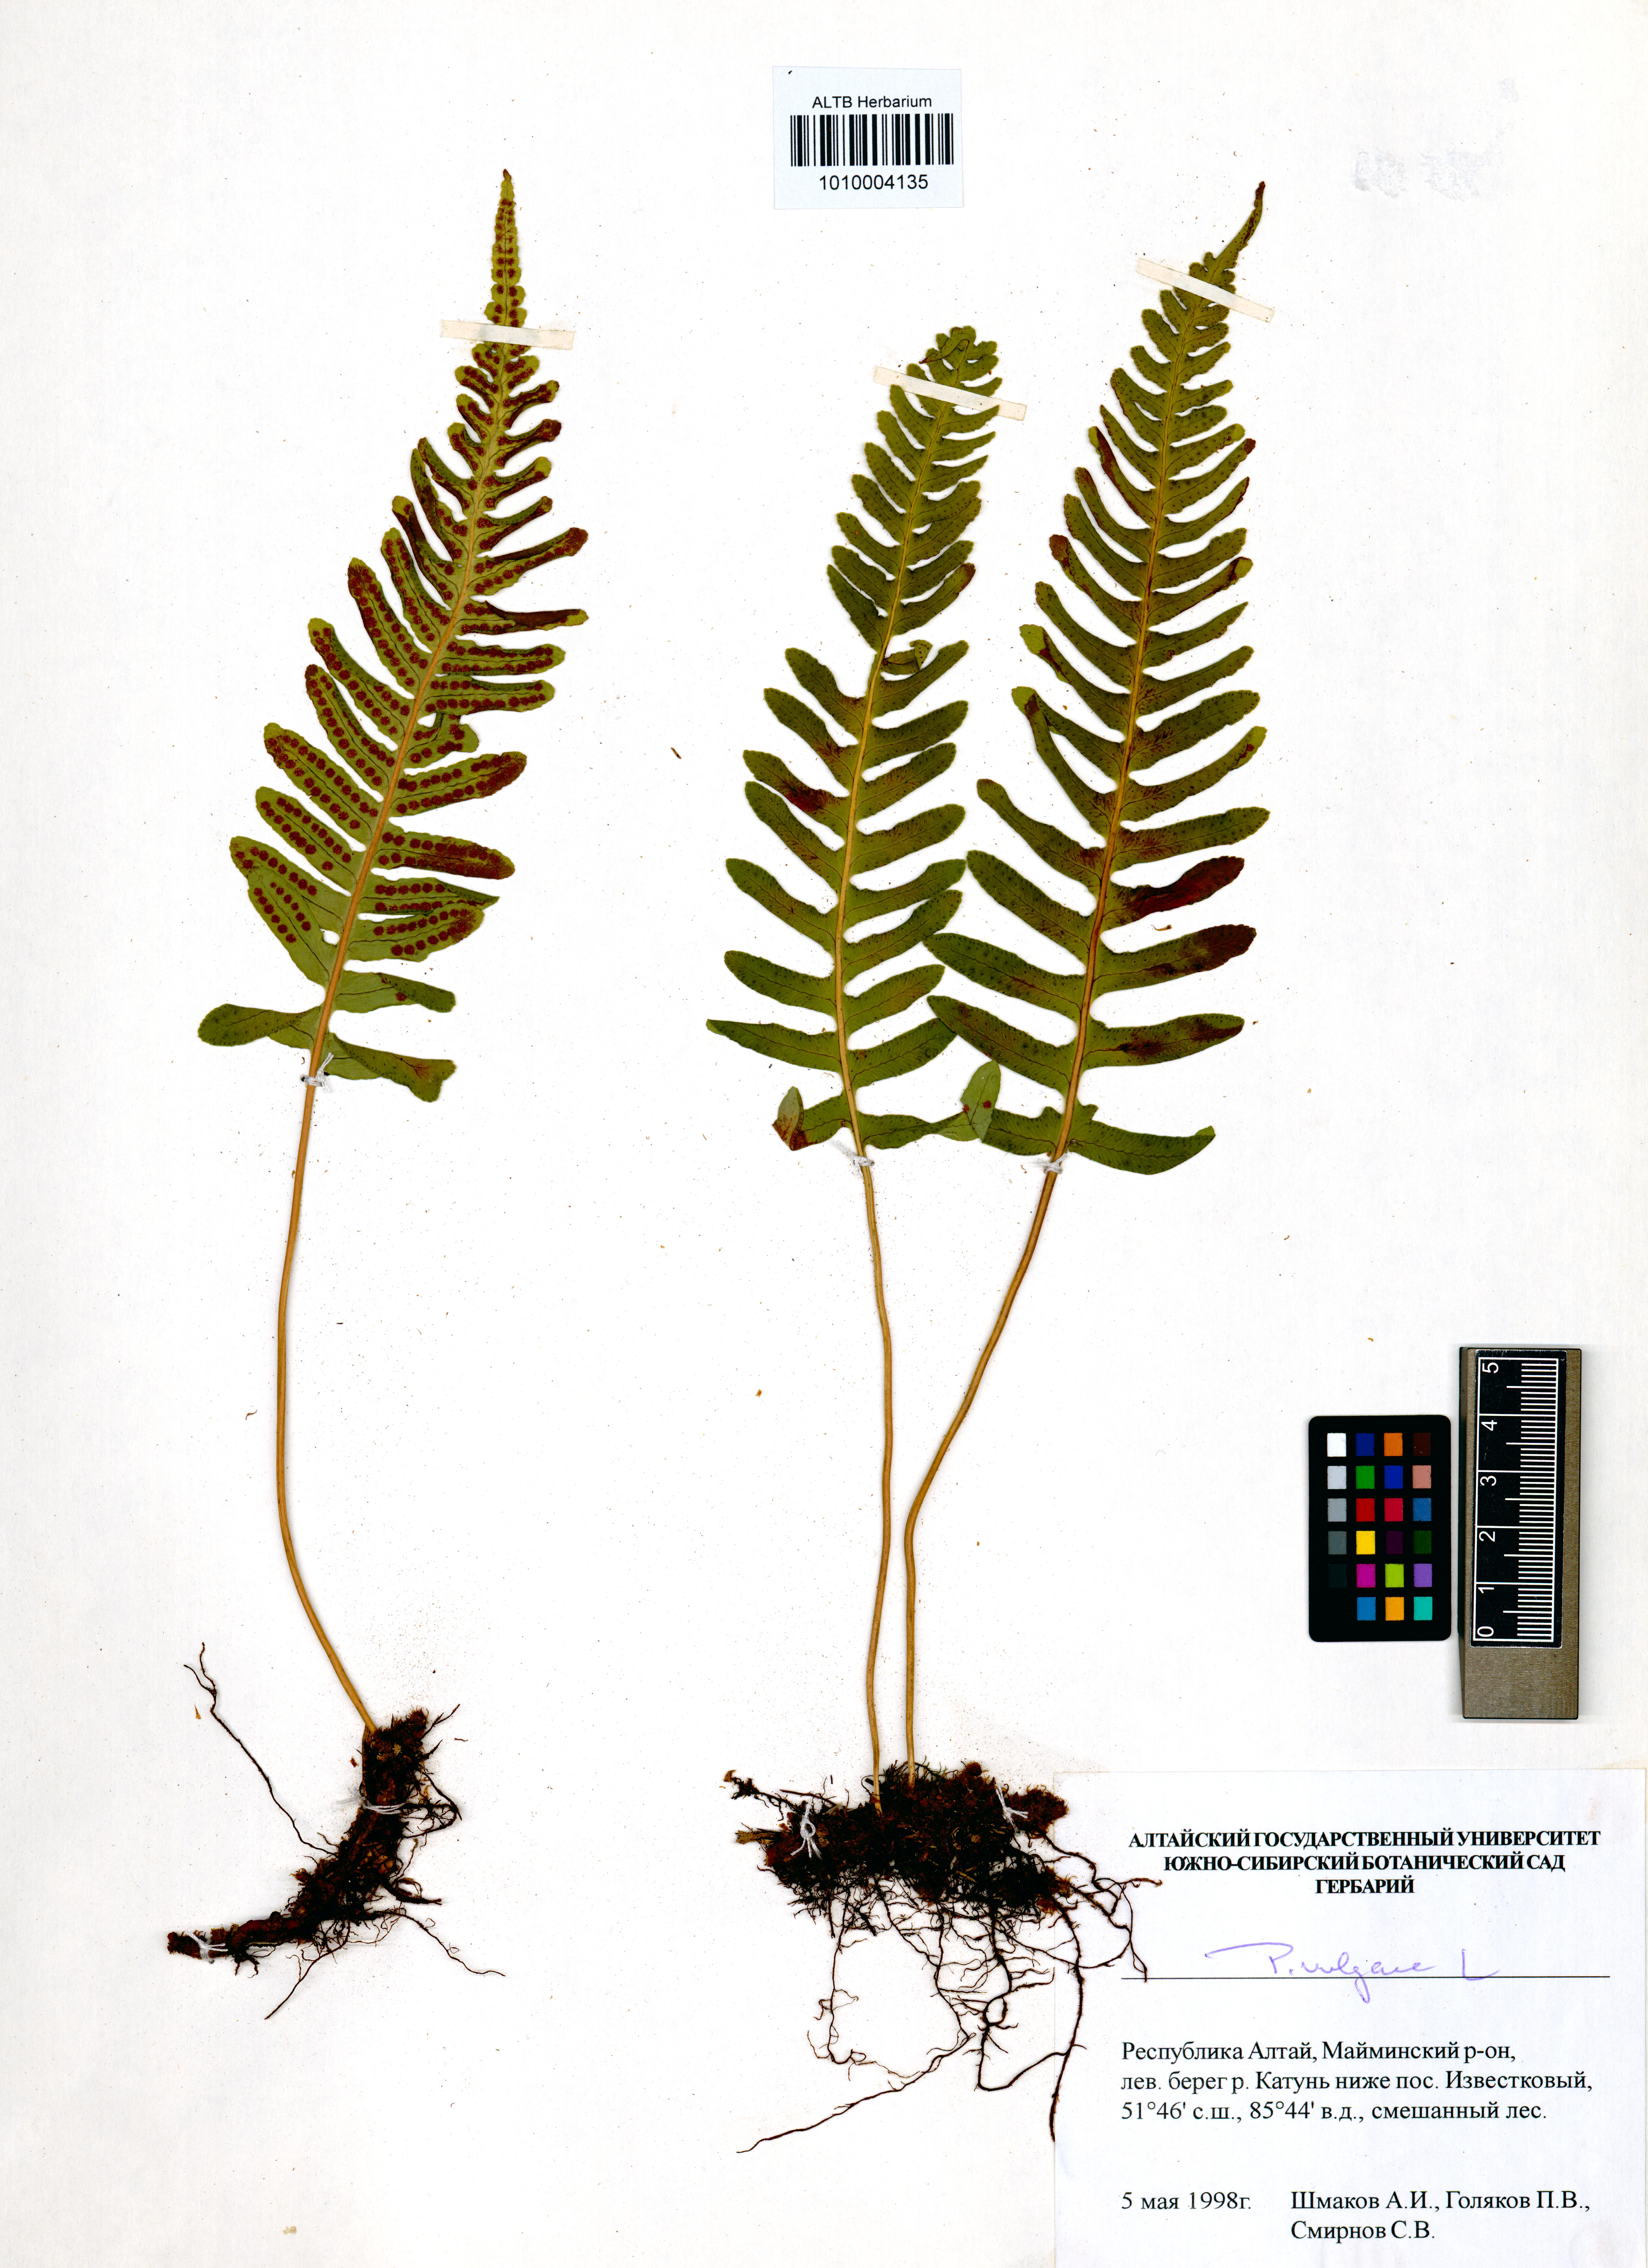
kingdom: Plantae
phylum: Tracheophyta
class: Polypodiopsida
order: Polypodiales
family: Polypodiaceae
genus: Polypodium
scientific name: Polypodium vulgare
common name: Common polypody
